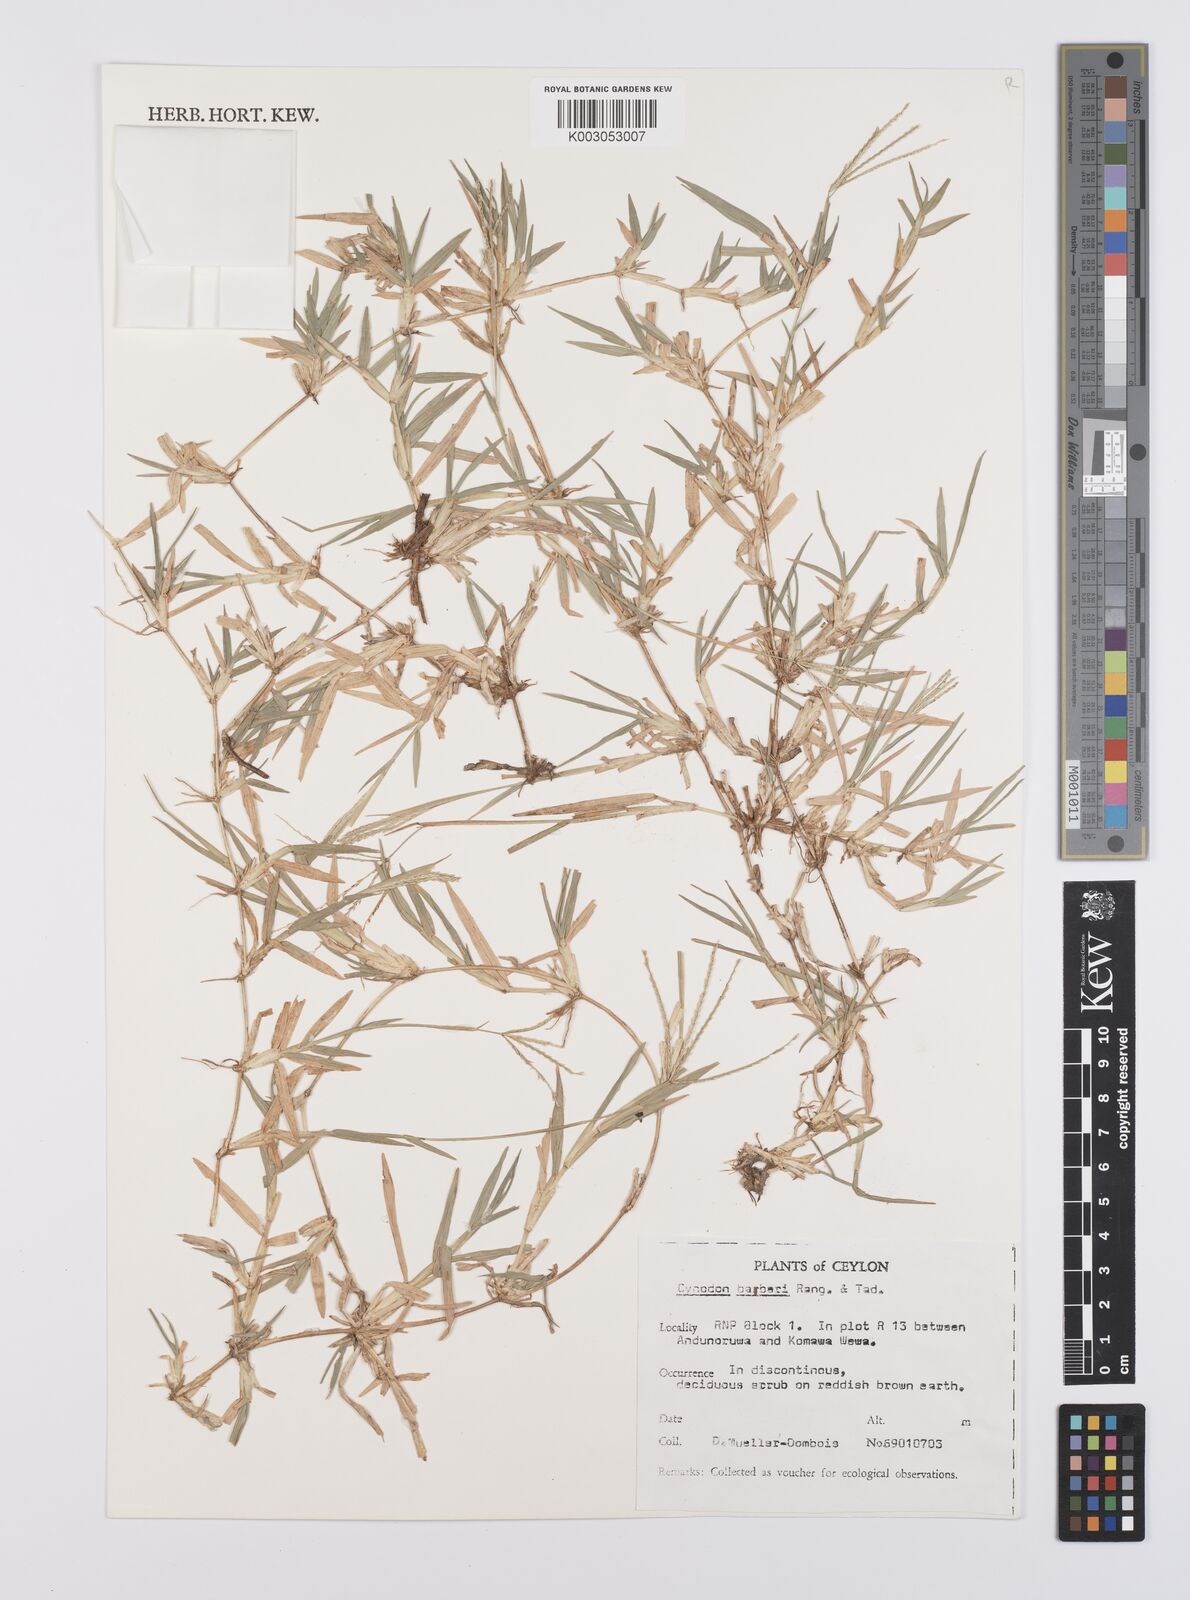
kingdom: Plantae
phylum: Tracheophyta
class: Liliopsida
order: Poales
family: Poaceae
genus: Cynodon
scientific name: Cynodon barberi
